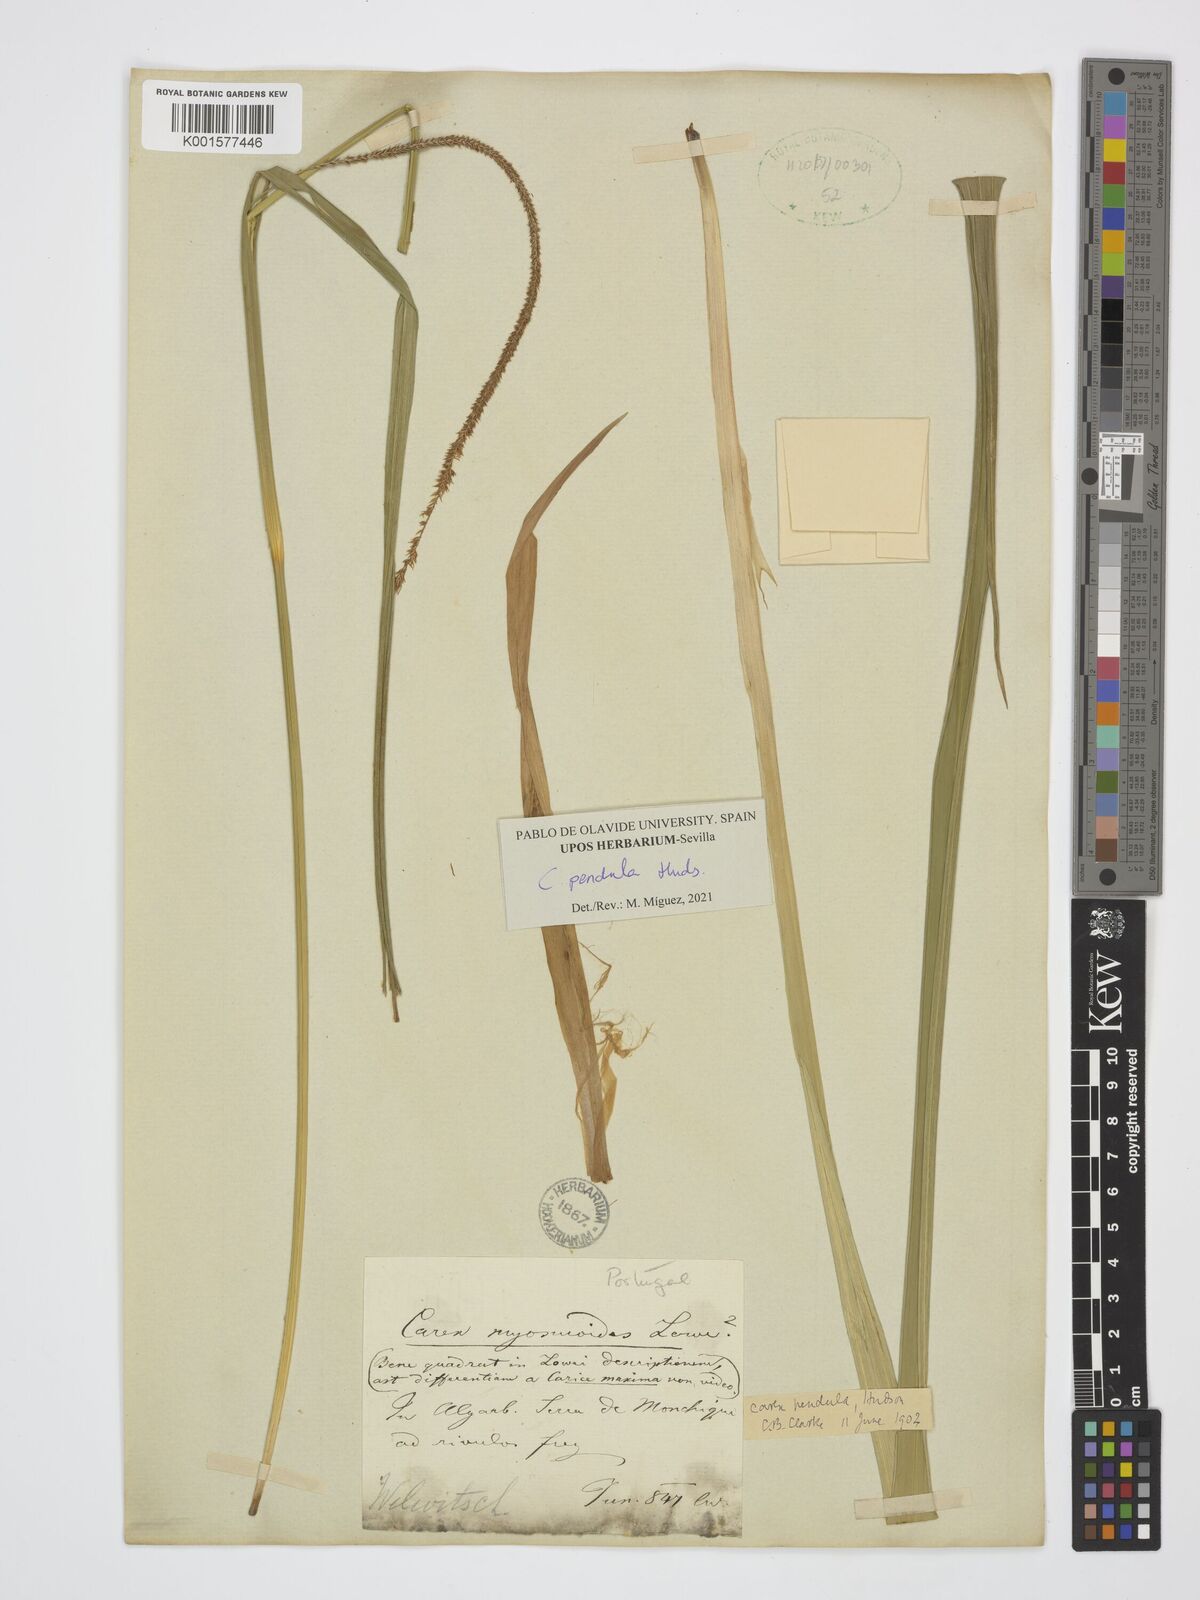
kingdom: Plantae
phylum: Tracheophyta
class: Liliopsida
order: Poales
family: Cyperaceae
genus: Carex
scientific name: Carex pendula
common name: Pendulous sedge
